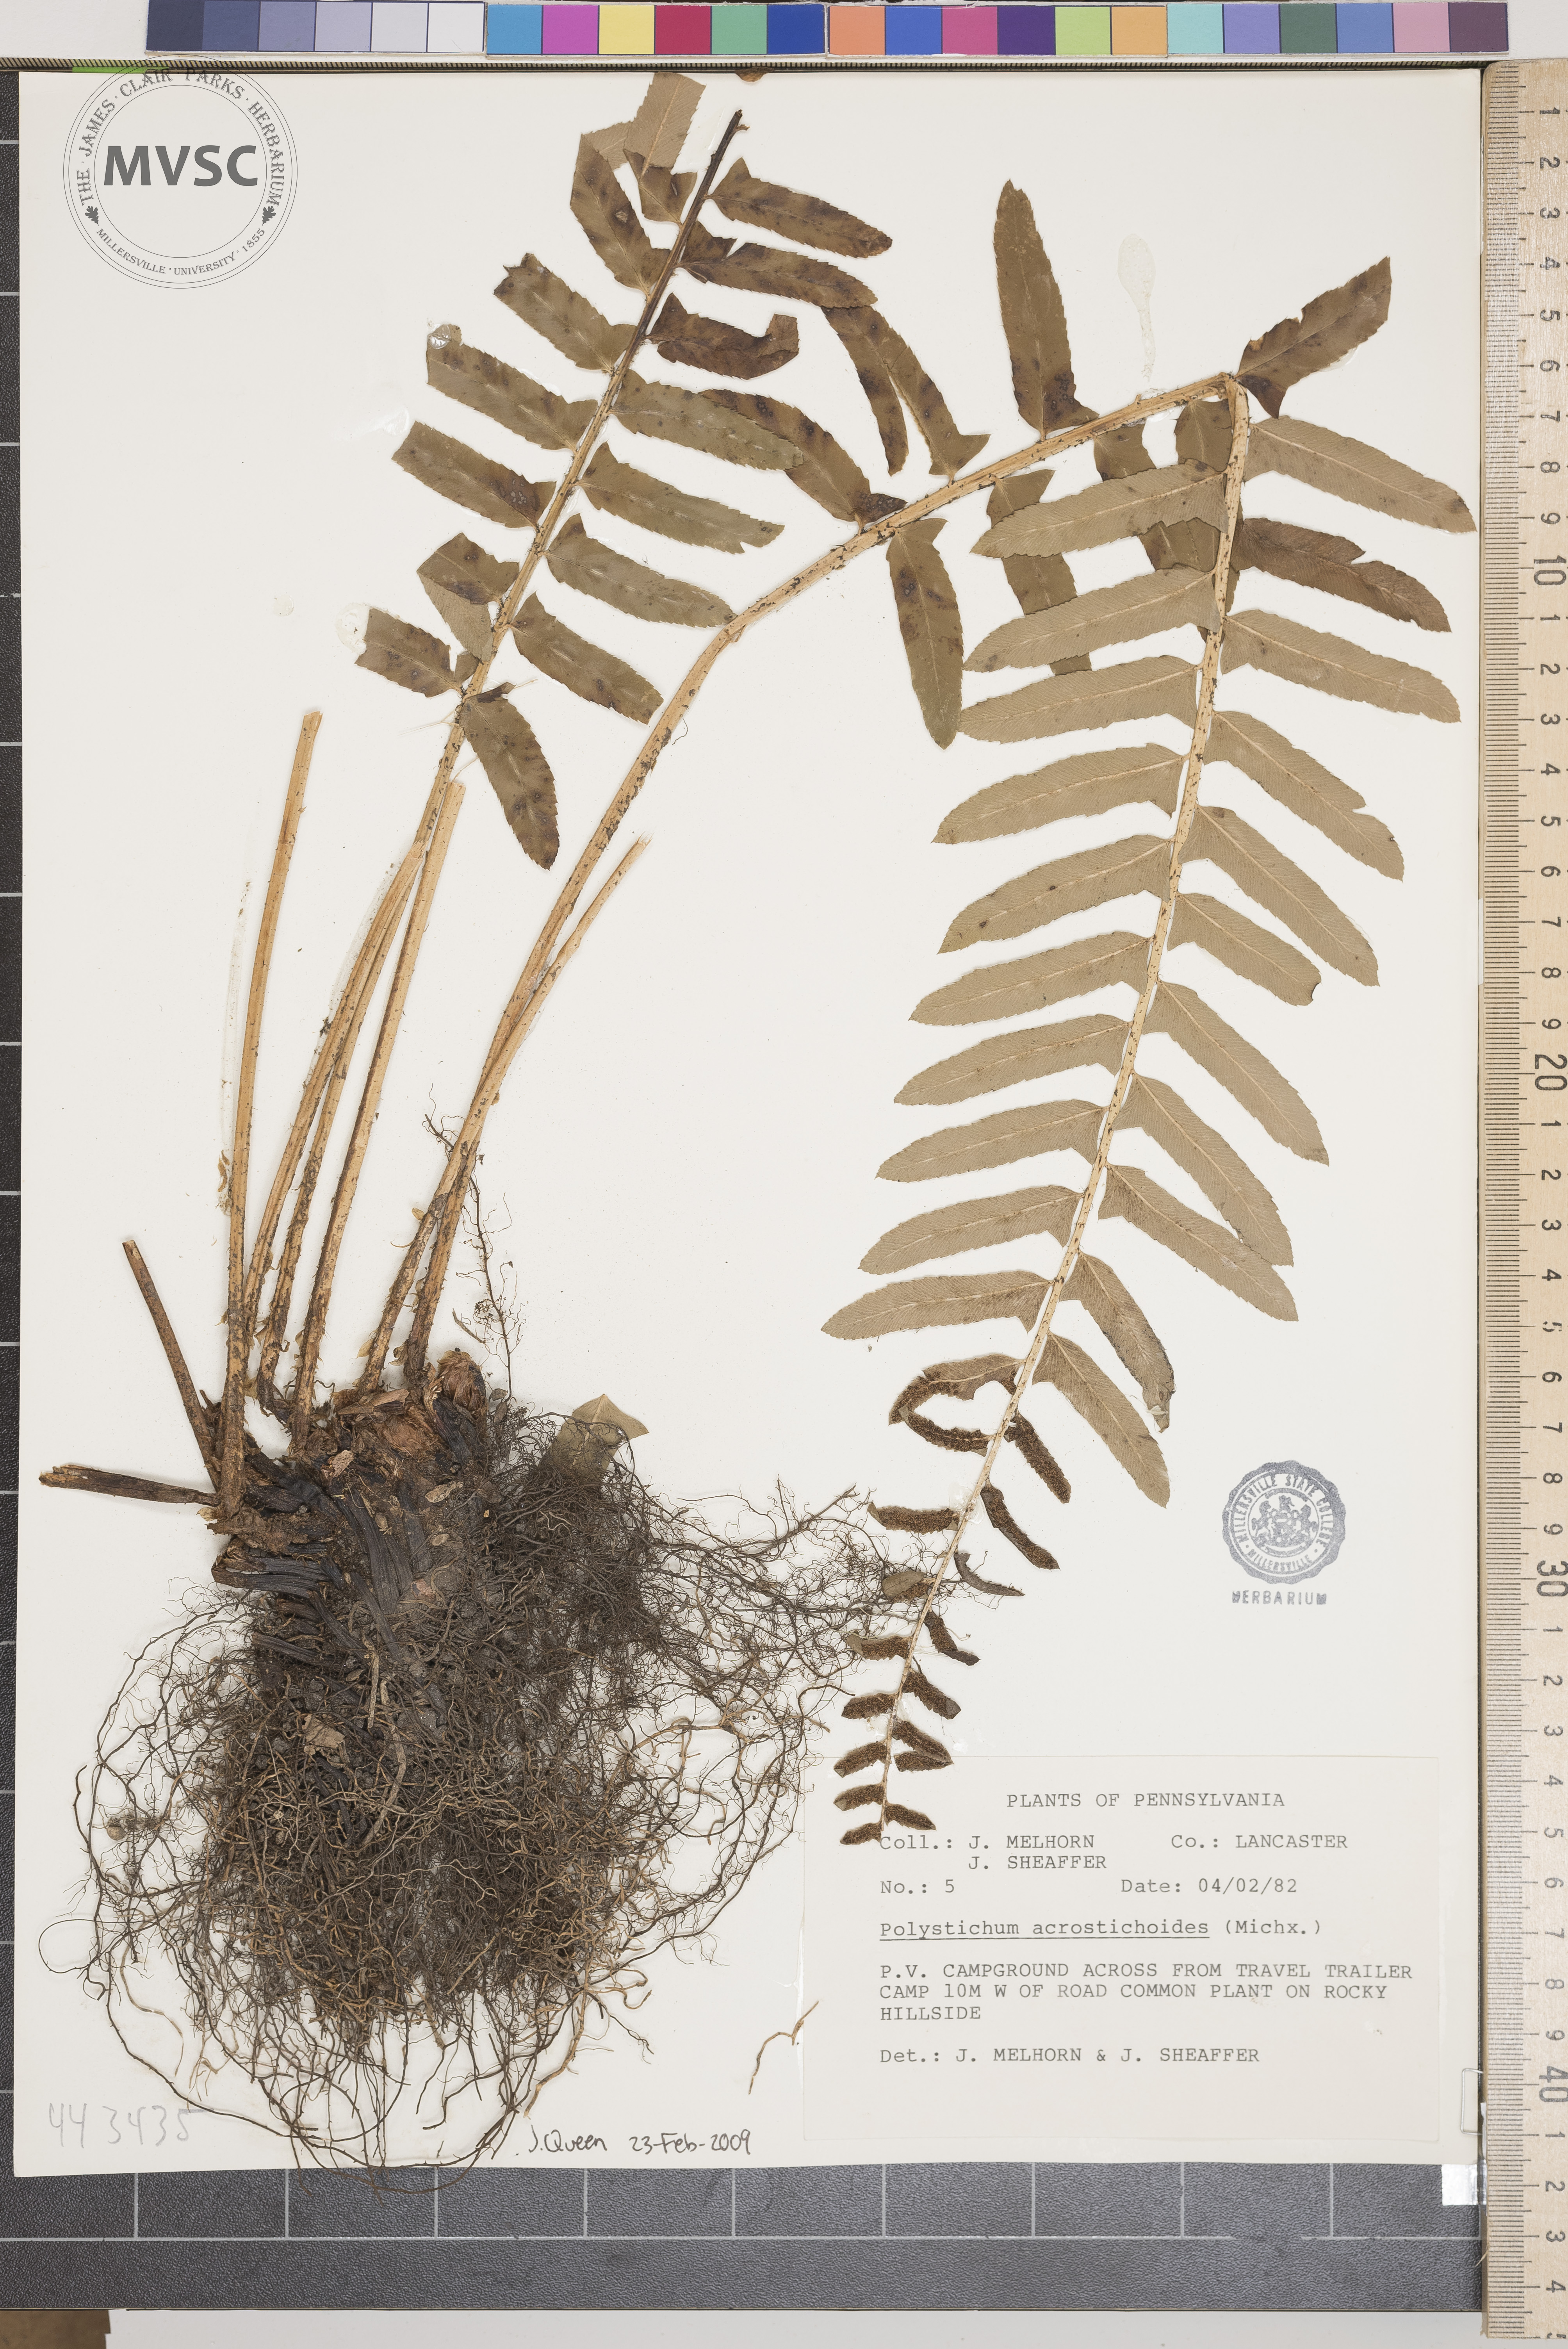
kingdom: Plantae
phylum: Tracheophyta
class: Polypodiopsida
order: Polypodiales
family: Dryopteridaceae
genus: Polystichum
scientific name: Polystichum acrostichoides
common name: Christmas fern
